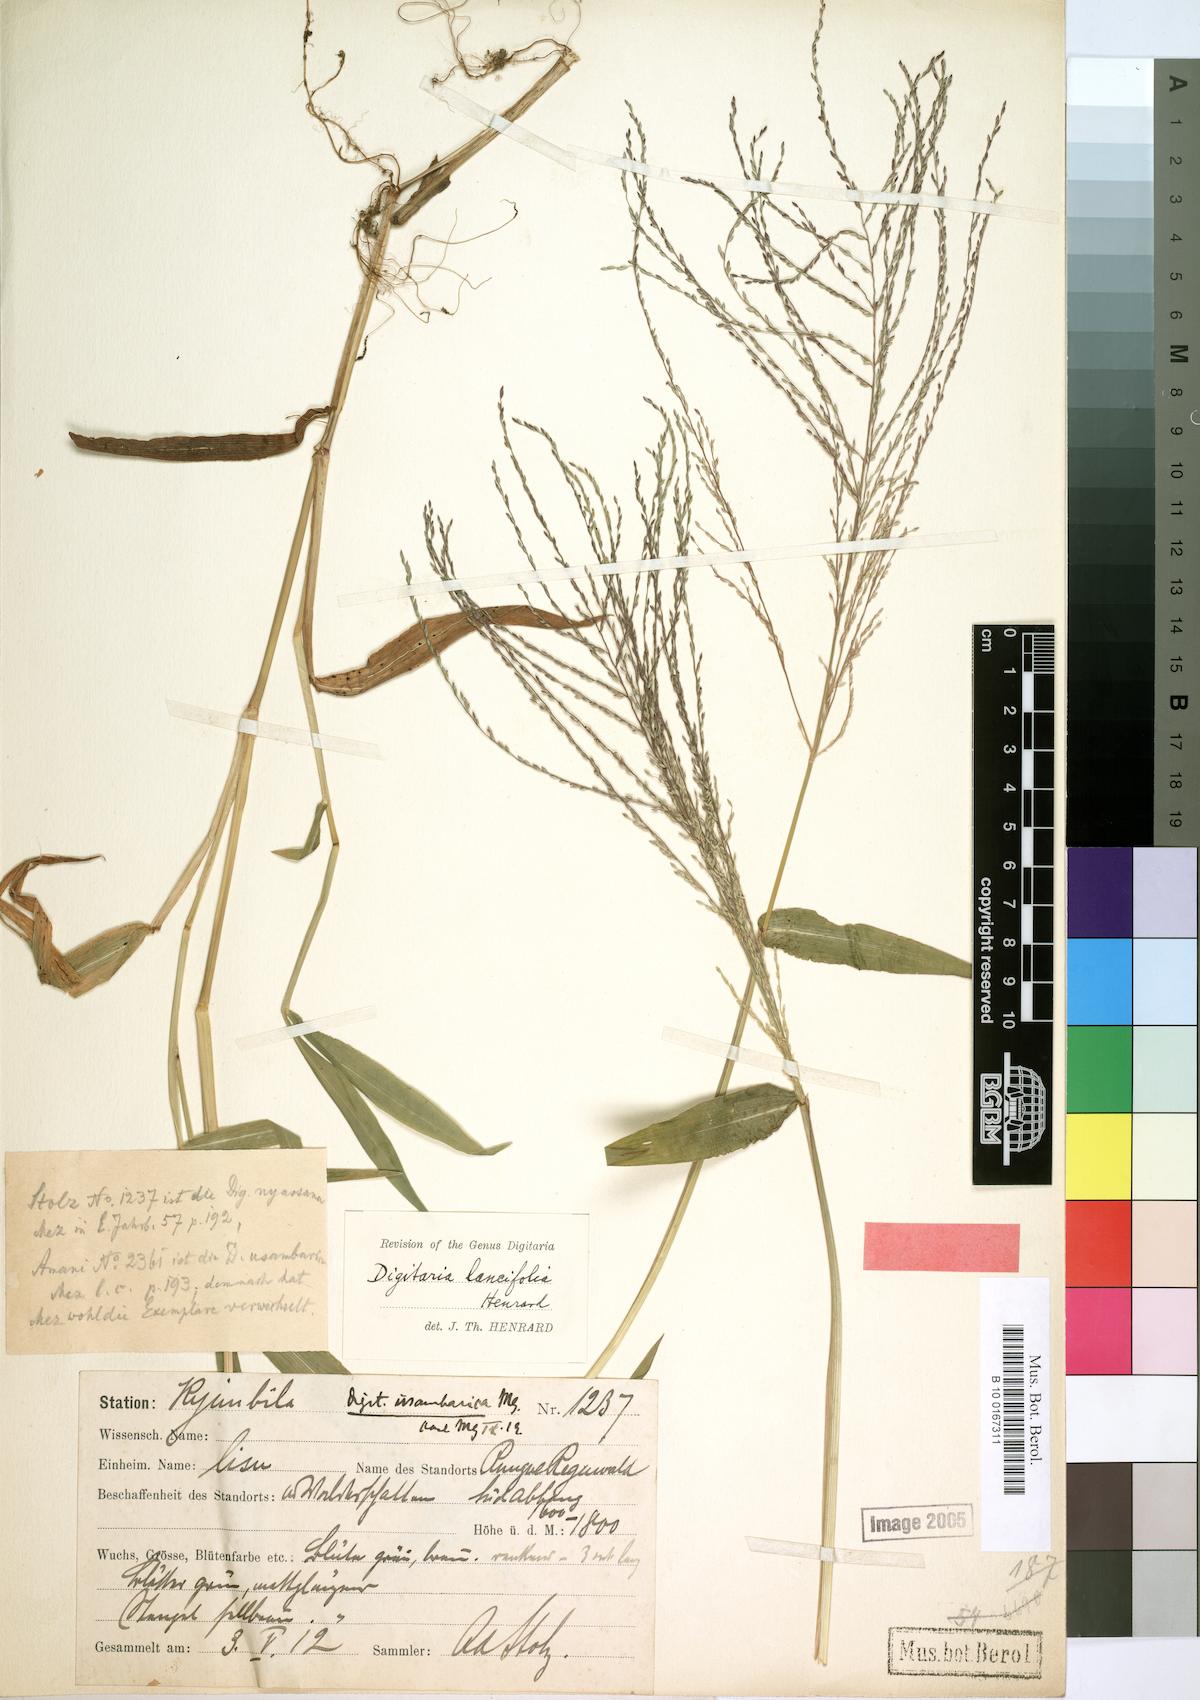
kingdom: Plantae
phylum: Tracheophyta
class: Liliopsida
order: Poales
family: Poaceae
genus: Digitaria
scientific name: Digitaria pearsonii
